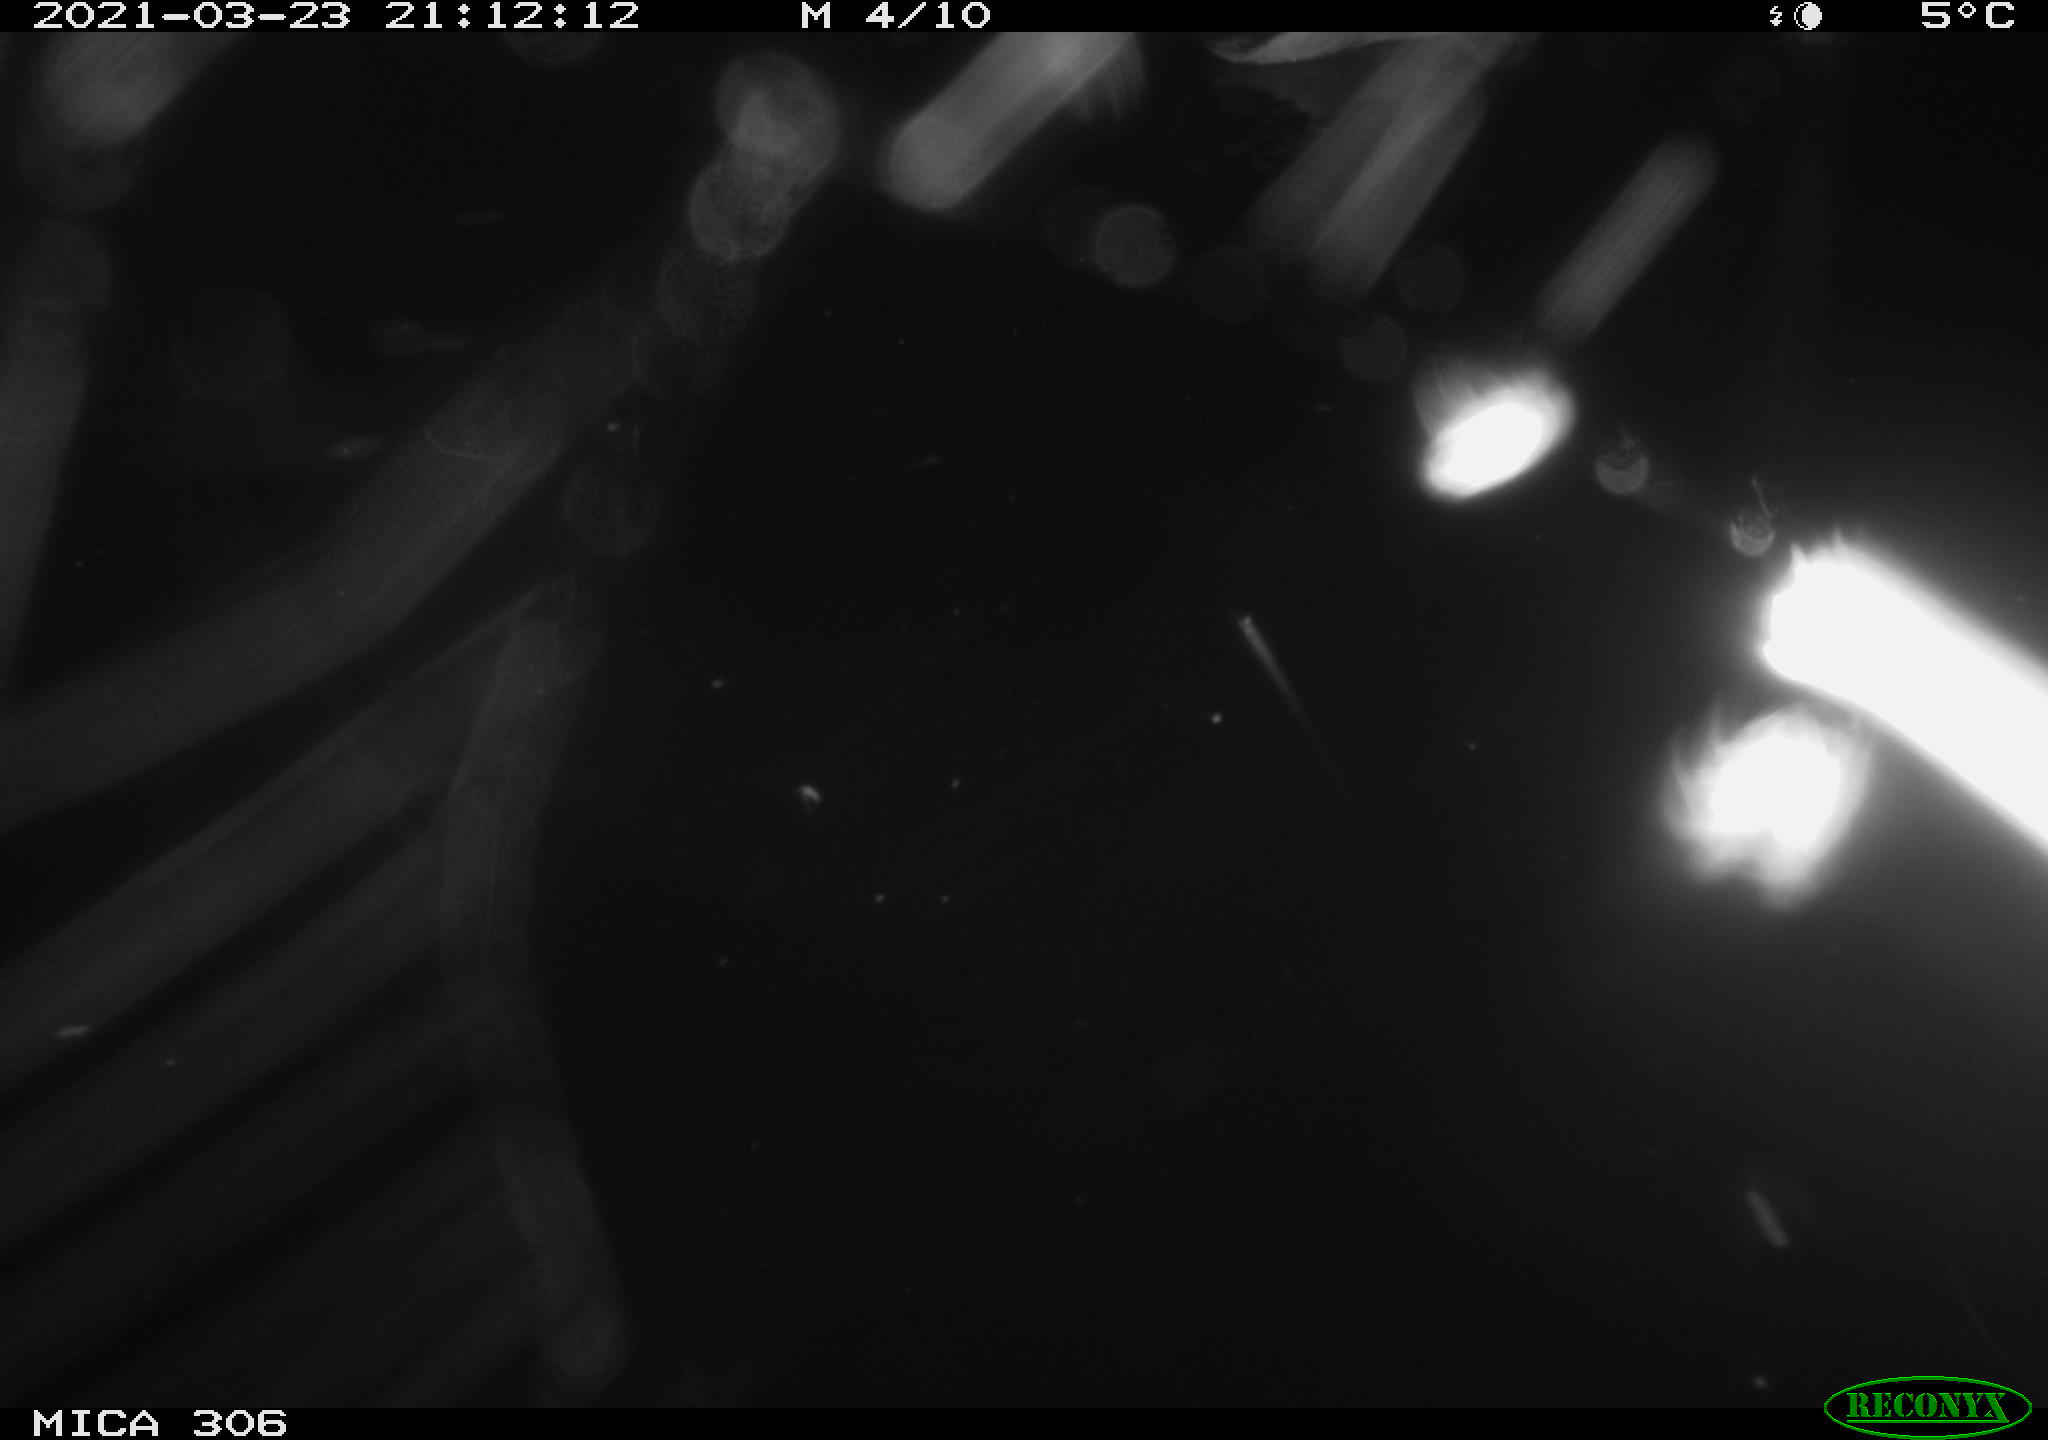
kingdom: Animalia
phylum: Chordata
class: Aves
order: Anseriformes
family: Anatidae
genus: Anas
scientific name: Anas platyrhynchos
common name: Mallard
